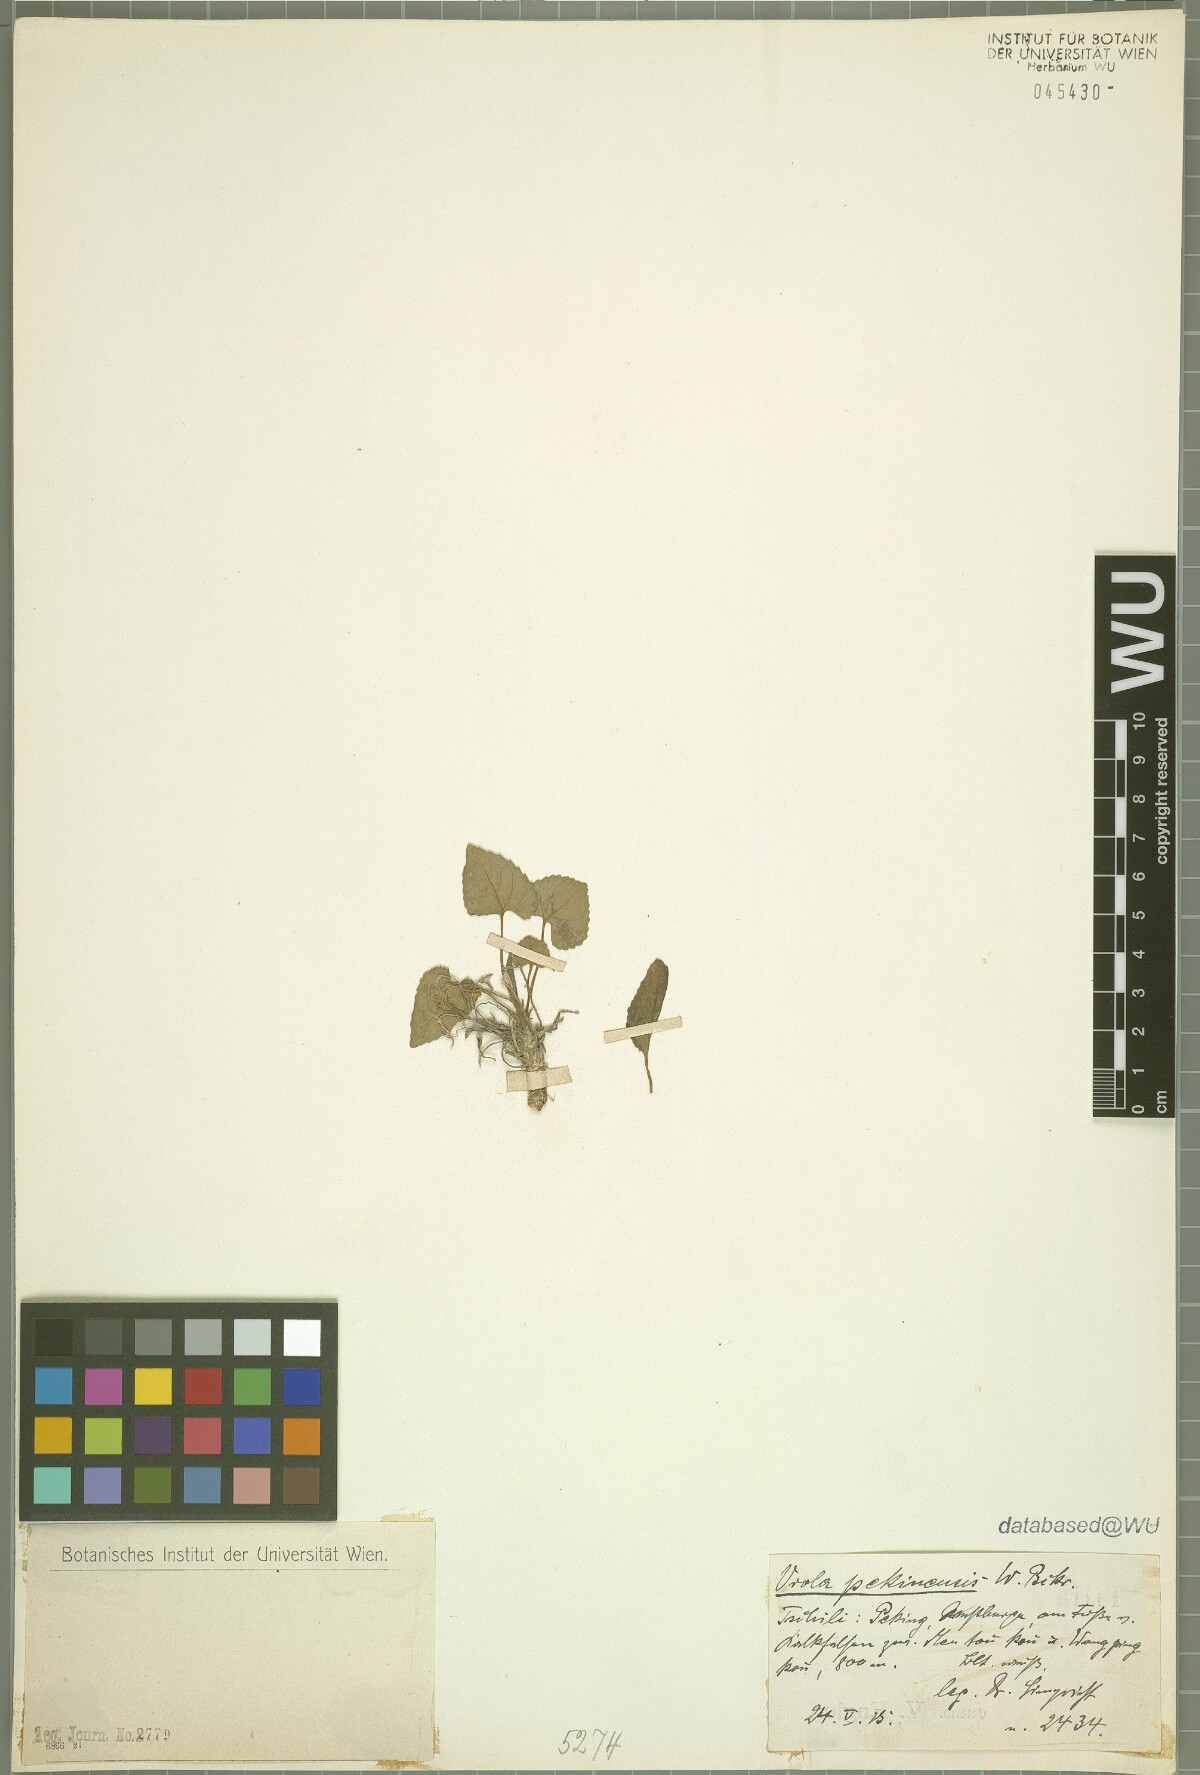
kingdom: Plantae
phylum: Tracheophyta
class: Magnoliopsida
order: Malpighiales
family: Violaceae
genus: Viola
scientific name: Viola pekinensis
